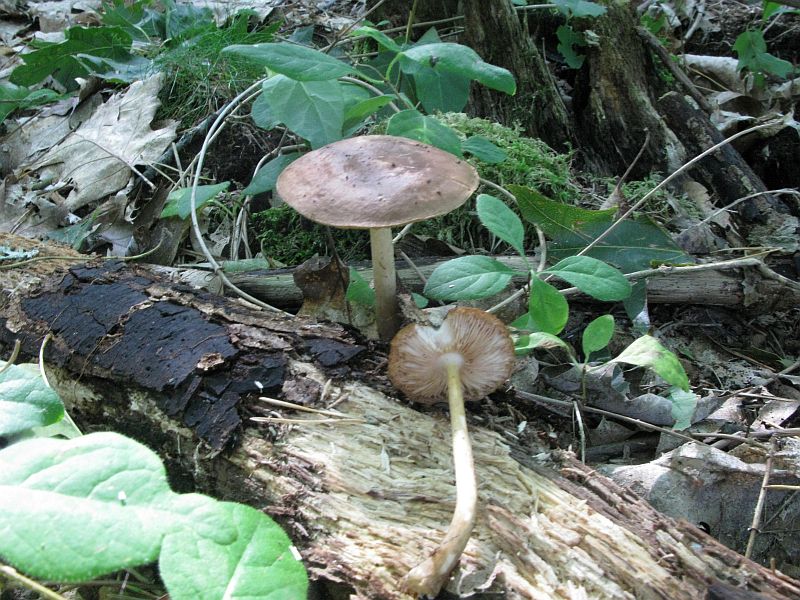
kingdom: Fungi
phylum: Basidiomycota
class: Agaricomycetes
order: Agaricales
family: Pluteaceae
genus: Pluteus
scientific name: Pluteus cervinus
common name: sodfarvet skærmhat
